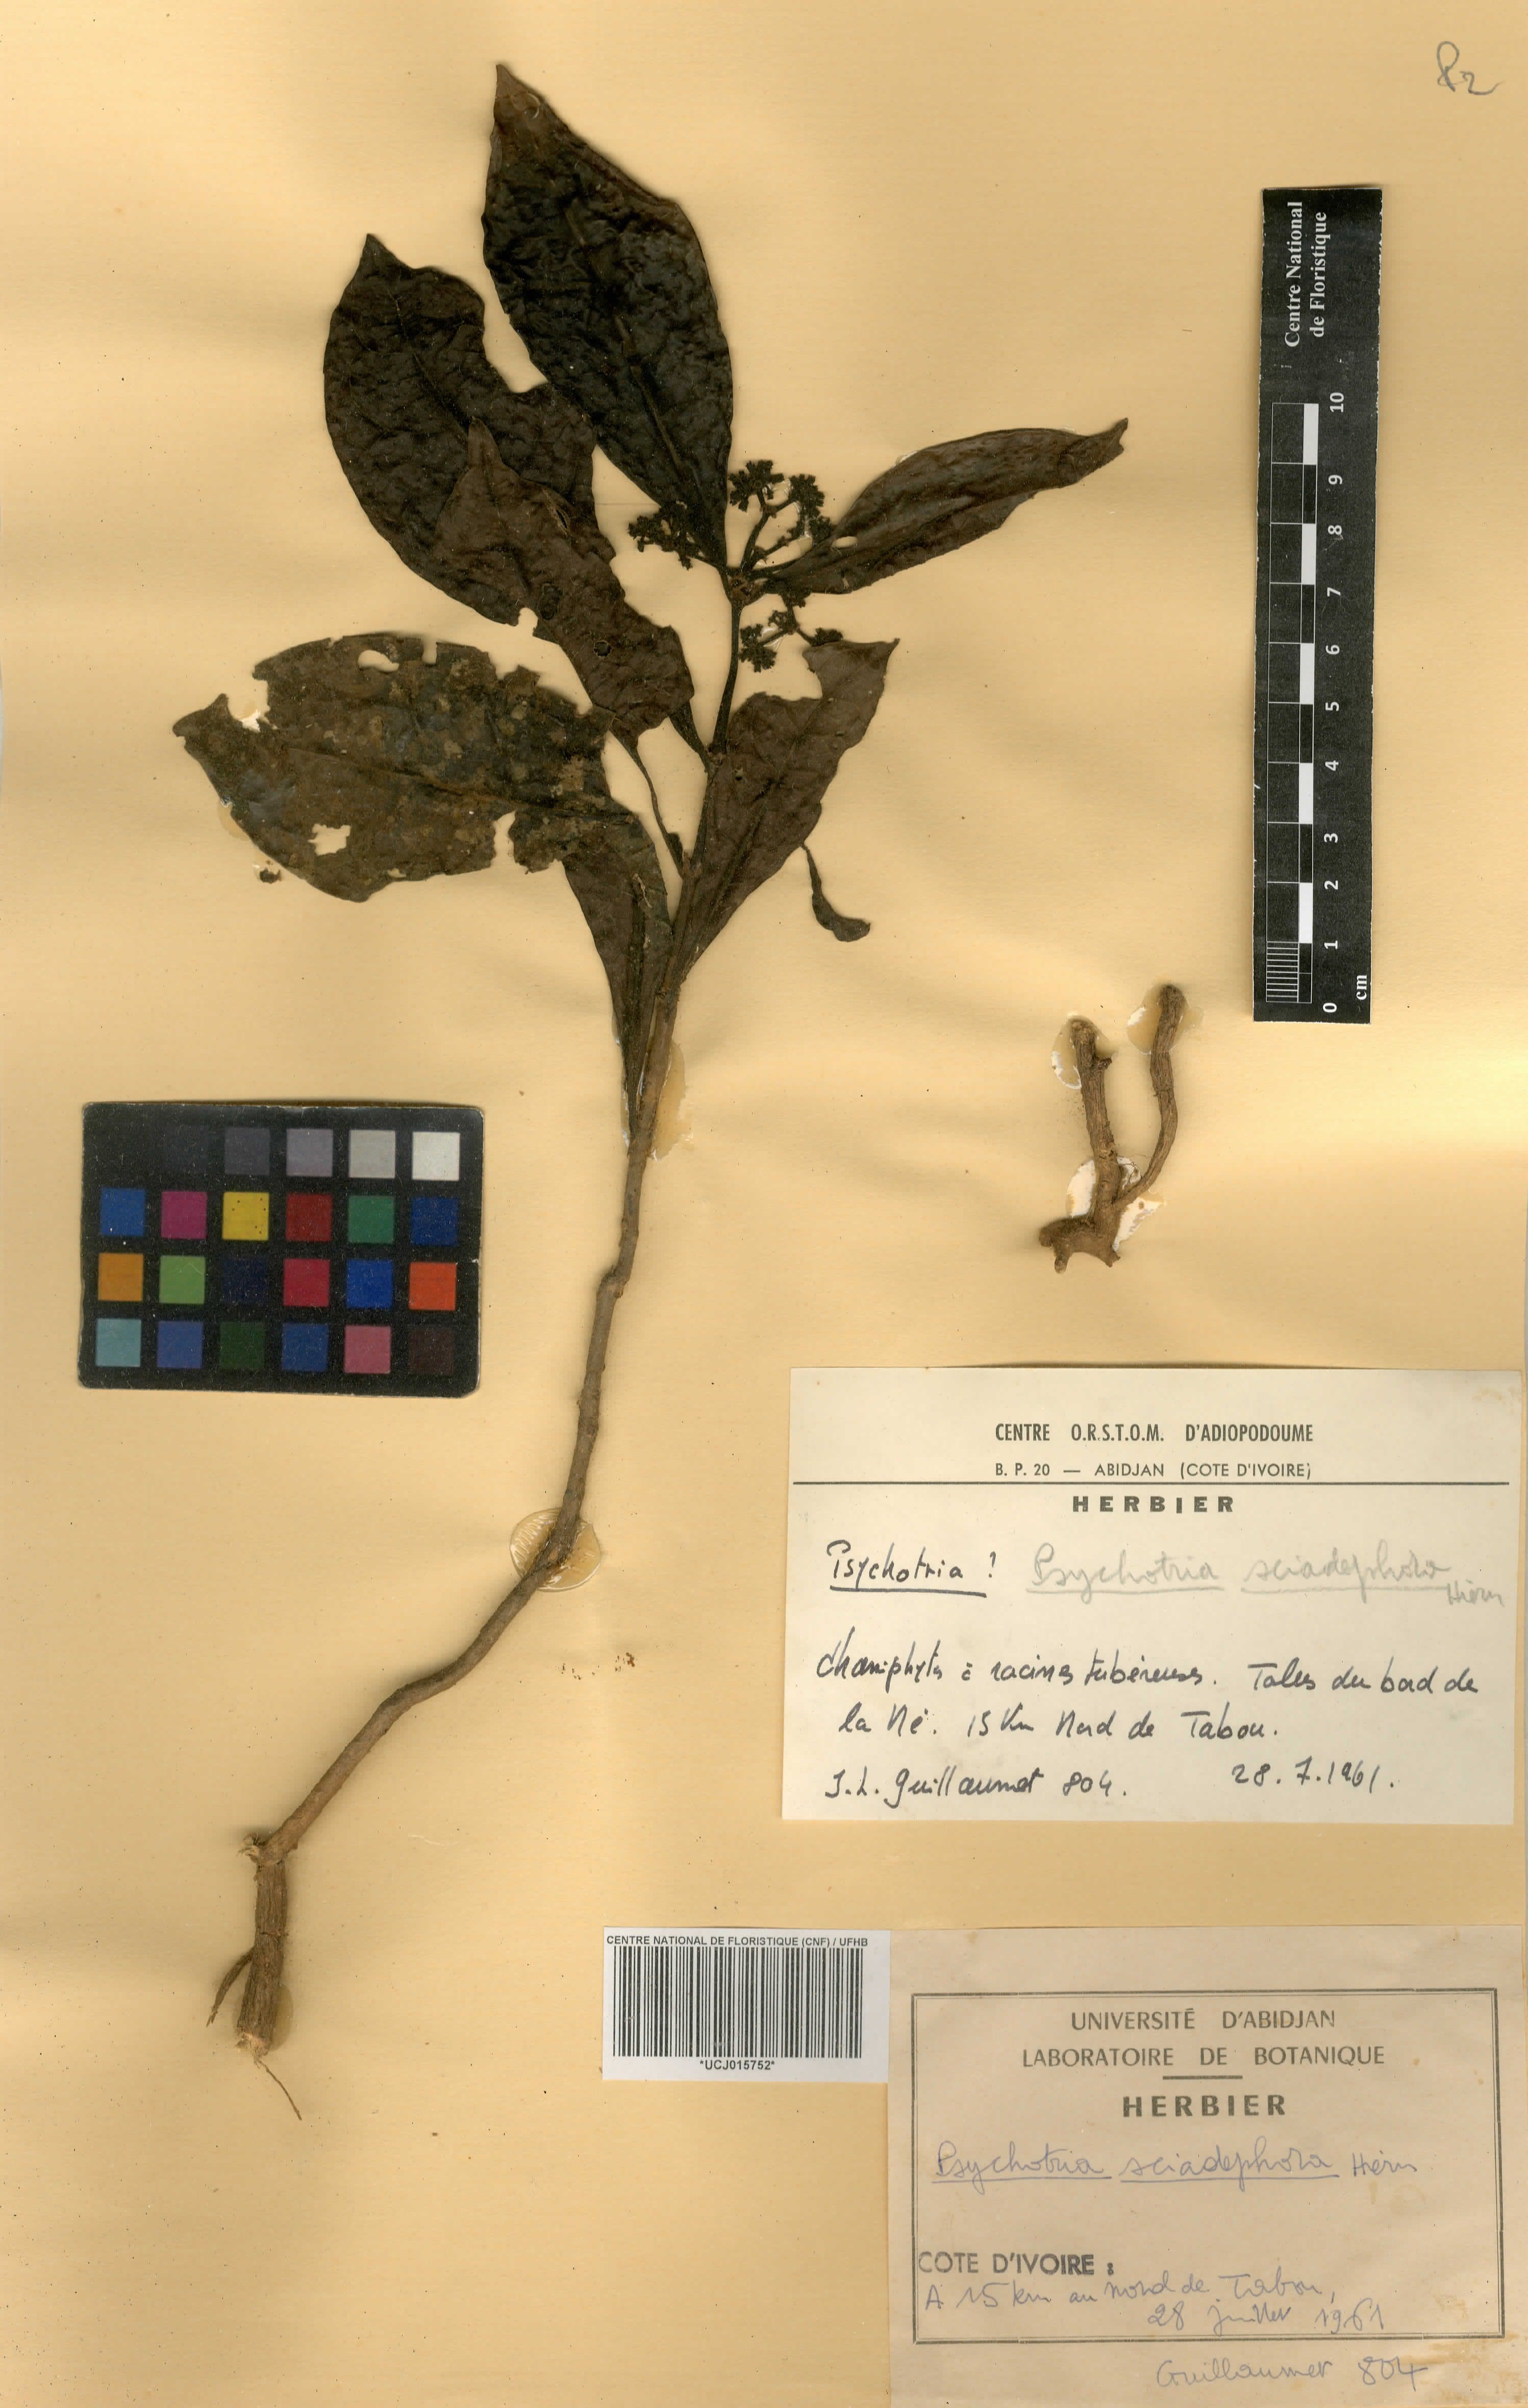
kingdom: Plantae
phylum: Tracheophyta
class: Magnoliopsida
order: Gentianales
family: Rubiaceae
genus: Eumachia
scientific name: Eumachia sciadephora
